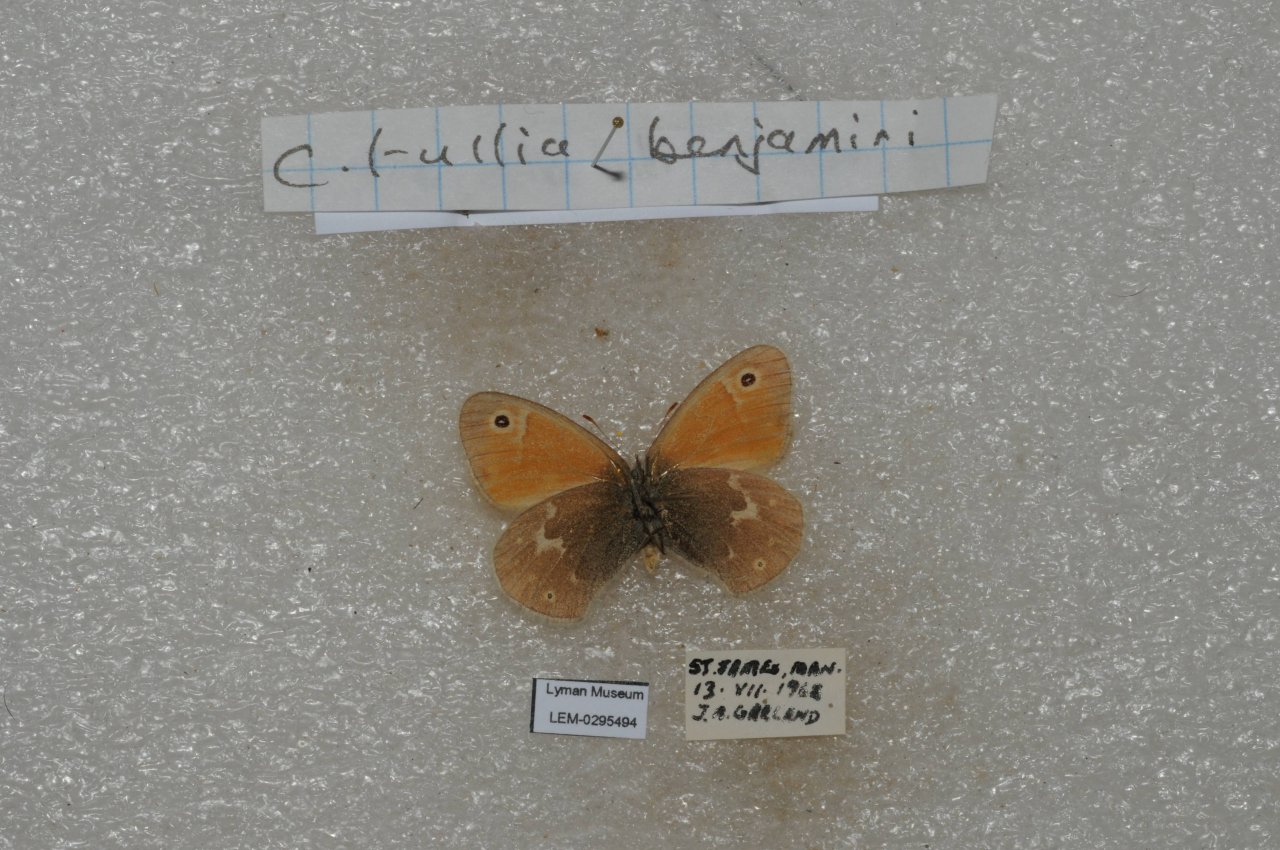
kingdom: Animalia
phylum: Arthropoda
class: Insecta
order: Lepidoptera
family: Nymphalidae
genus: Coenonympha
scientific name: Coenonympha tullia
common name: Large Heath
